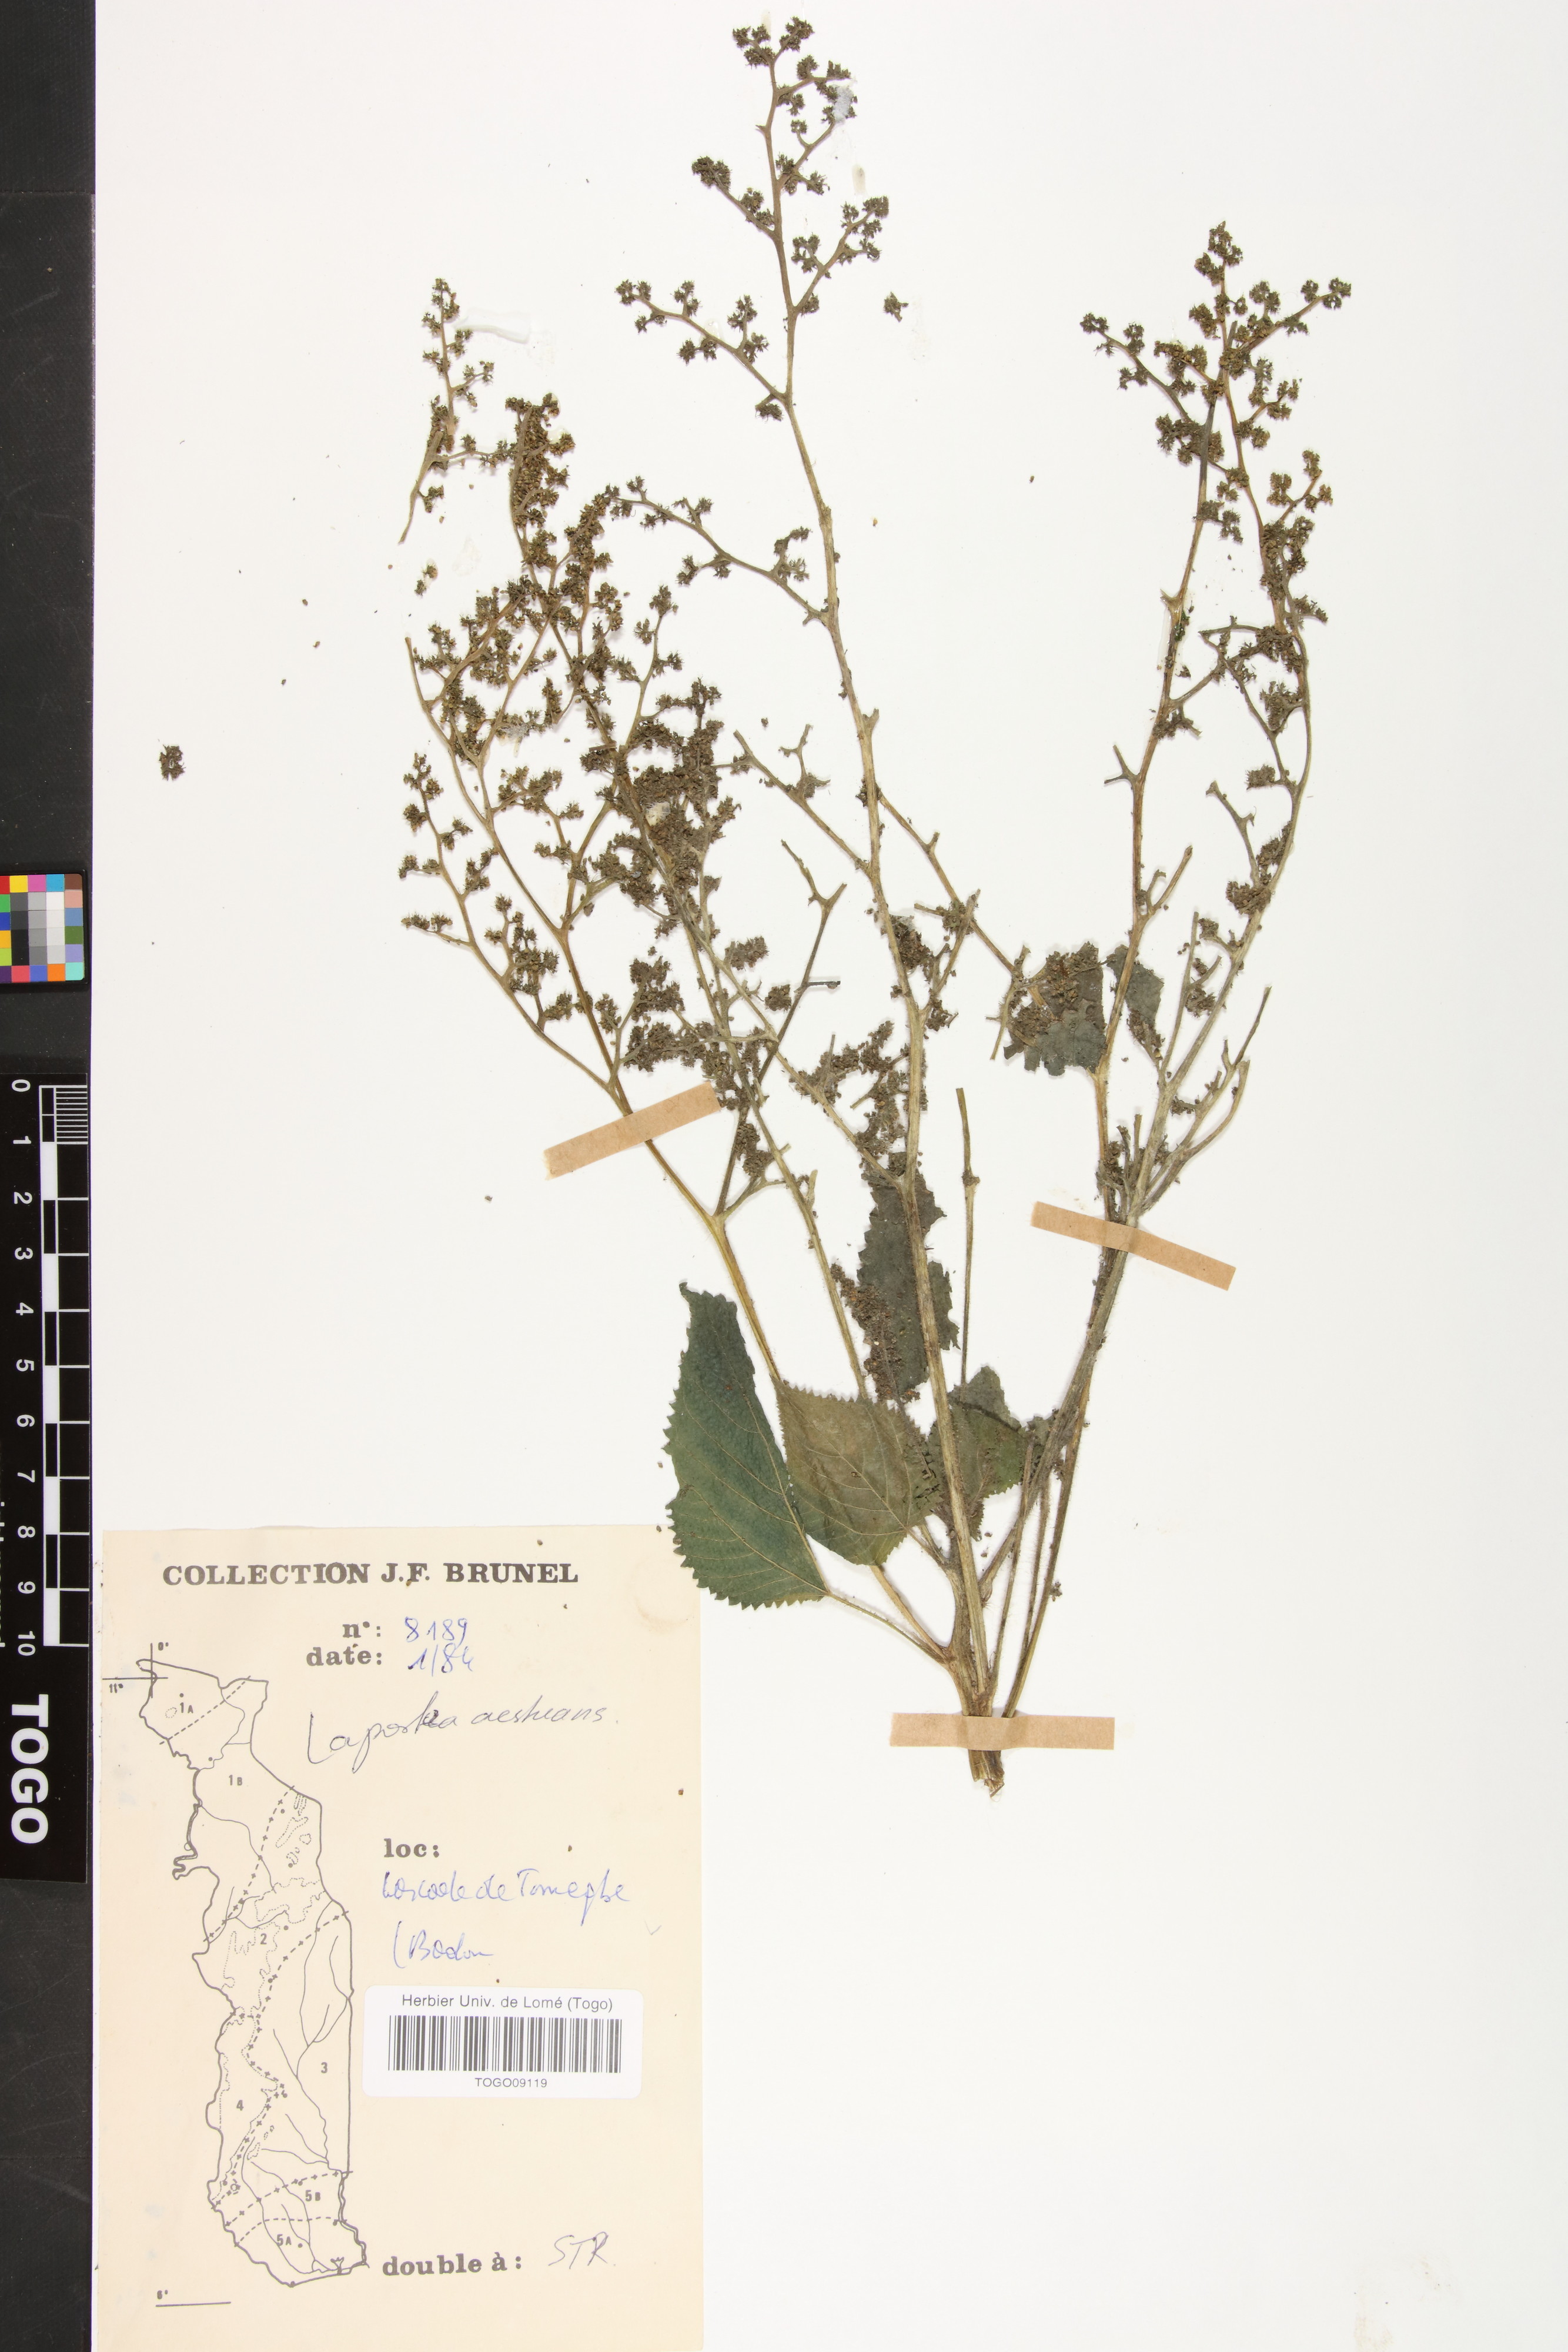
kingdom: Plantae
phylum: Tracheophyta
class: Magnoliopsida
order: Rosales
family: Urticaceae
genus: Laportea
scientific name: Laportea aestuans
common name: West indian woodnettle
